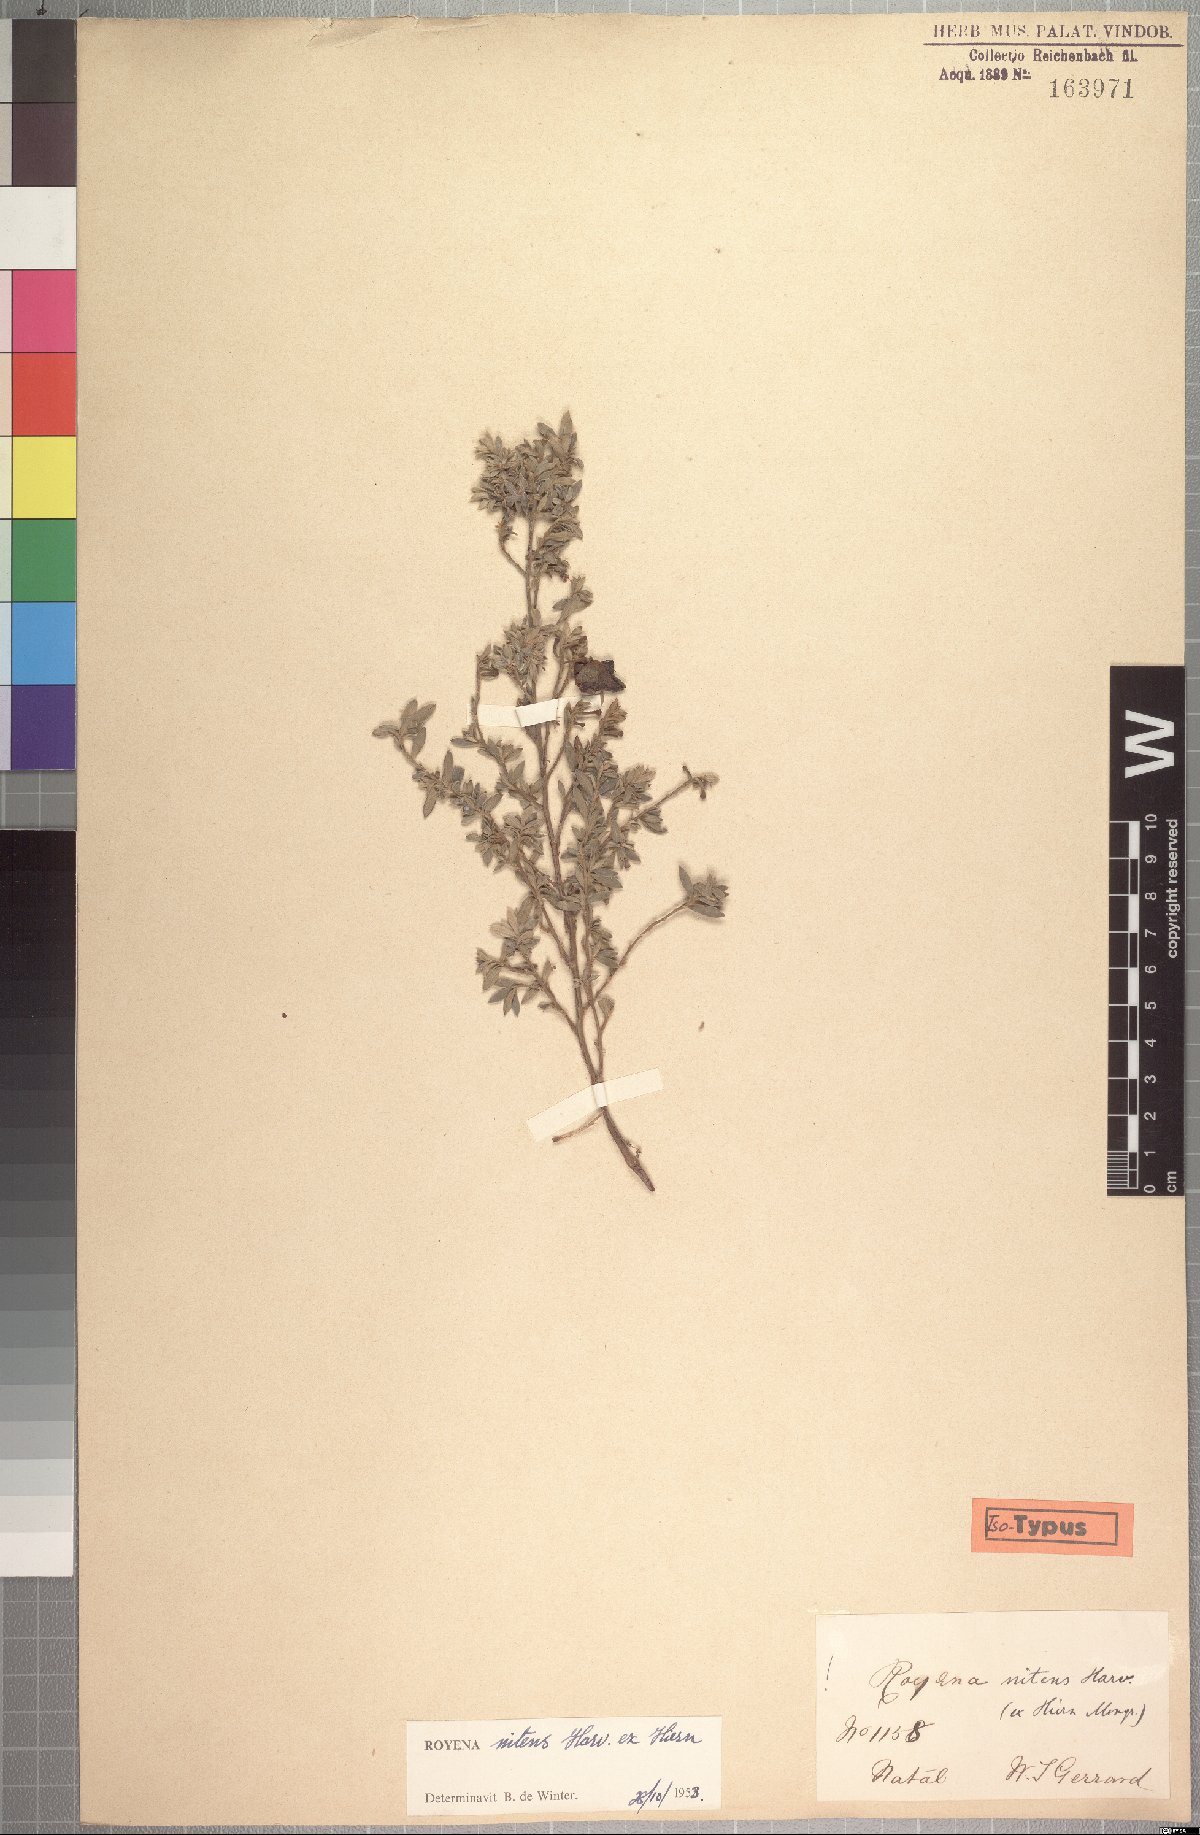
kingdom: Plantae
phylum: Tracheophyta
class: Magnoliopsida
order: Ericales
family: Ebenaceae
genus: Diospyros
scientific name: Diospyros lycioides
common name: Red star apple
